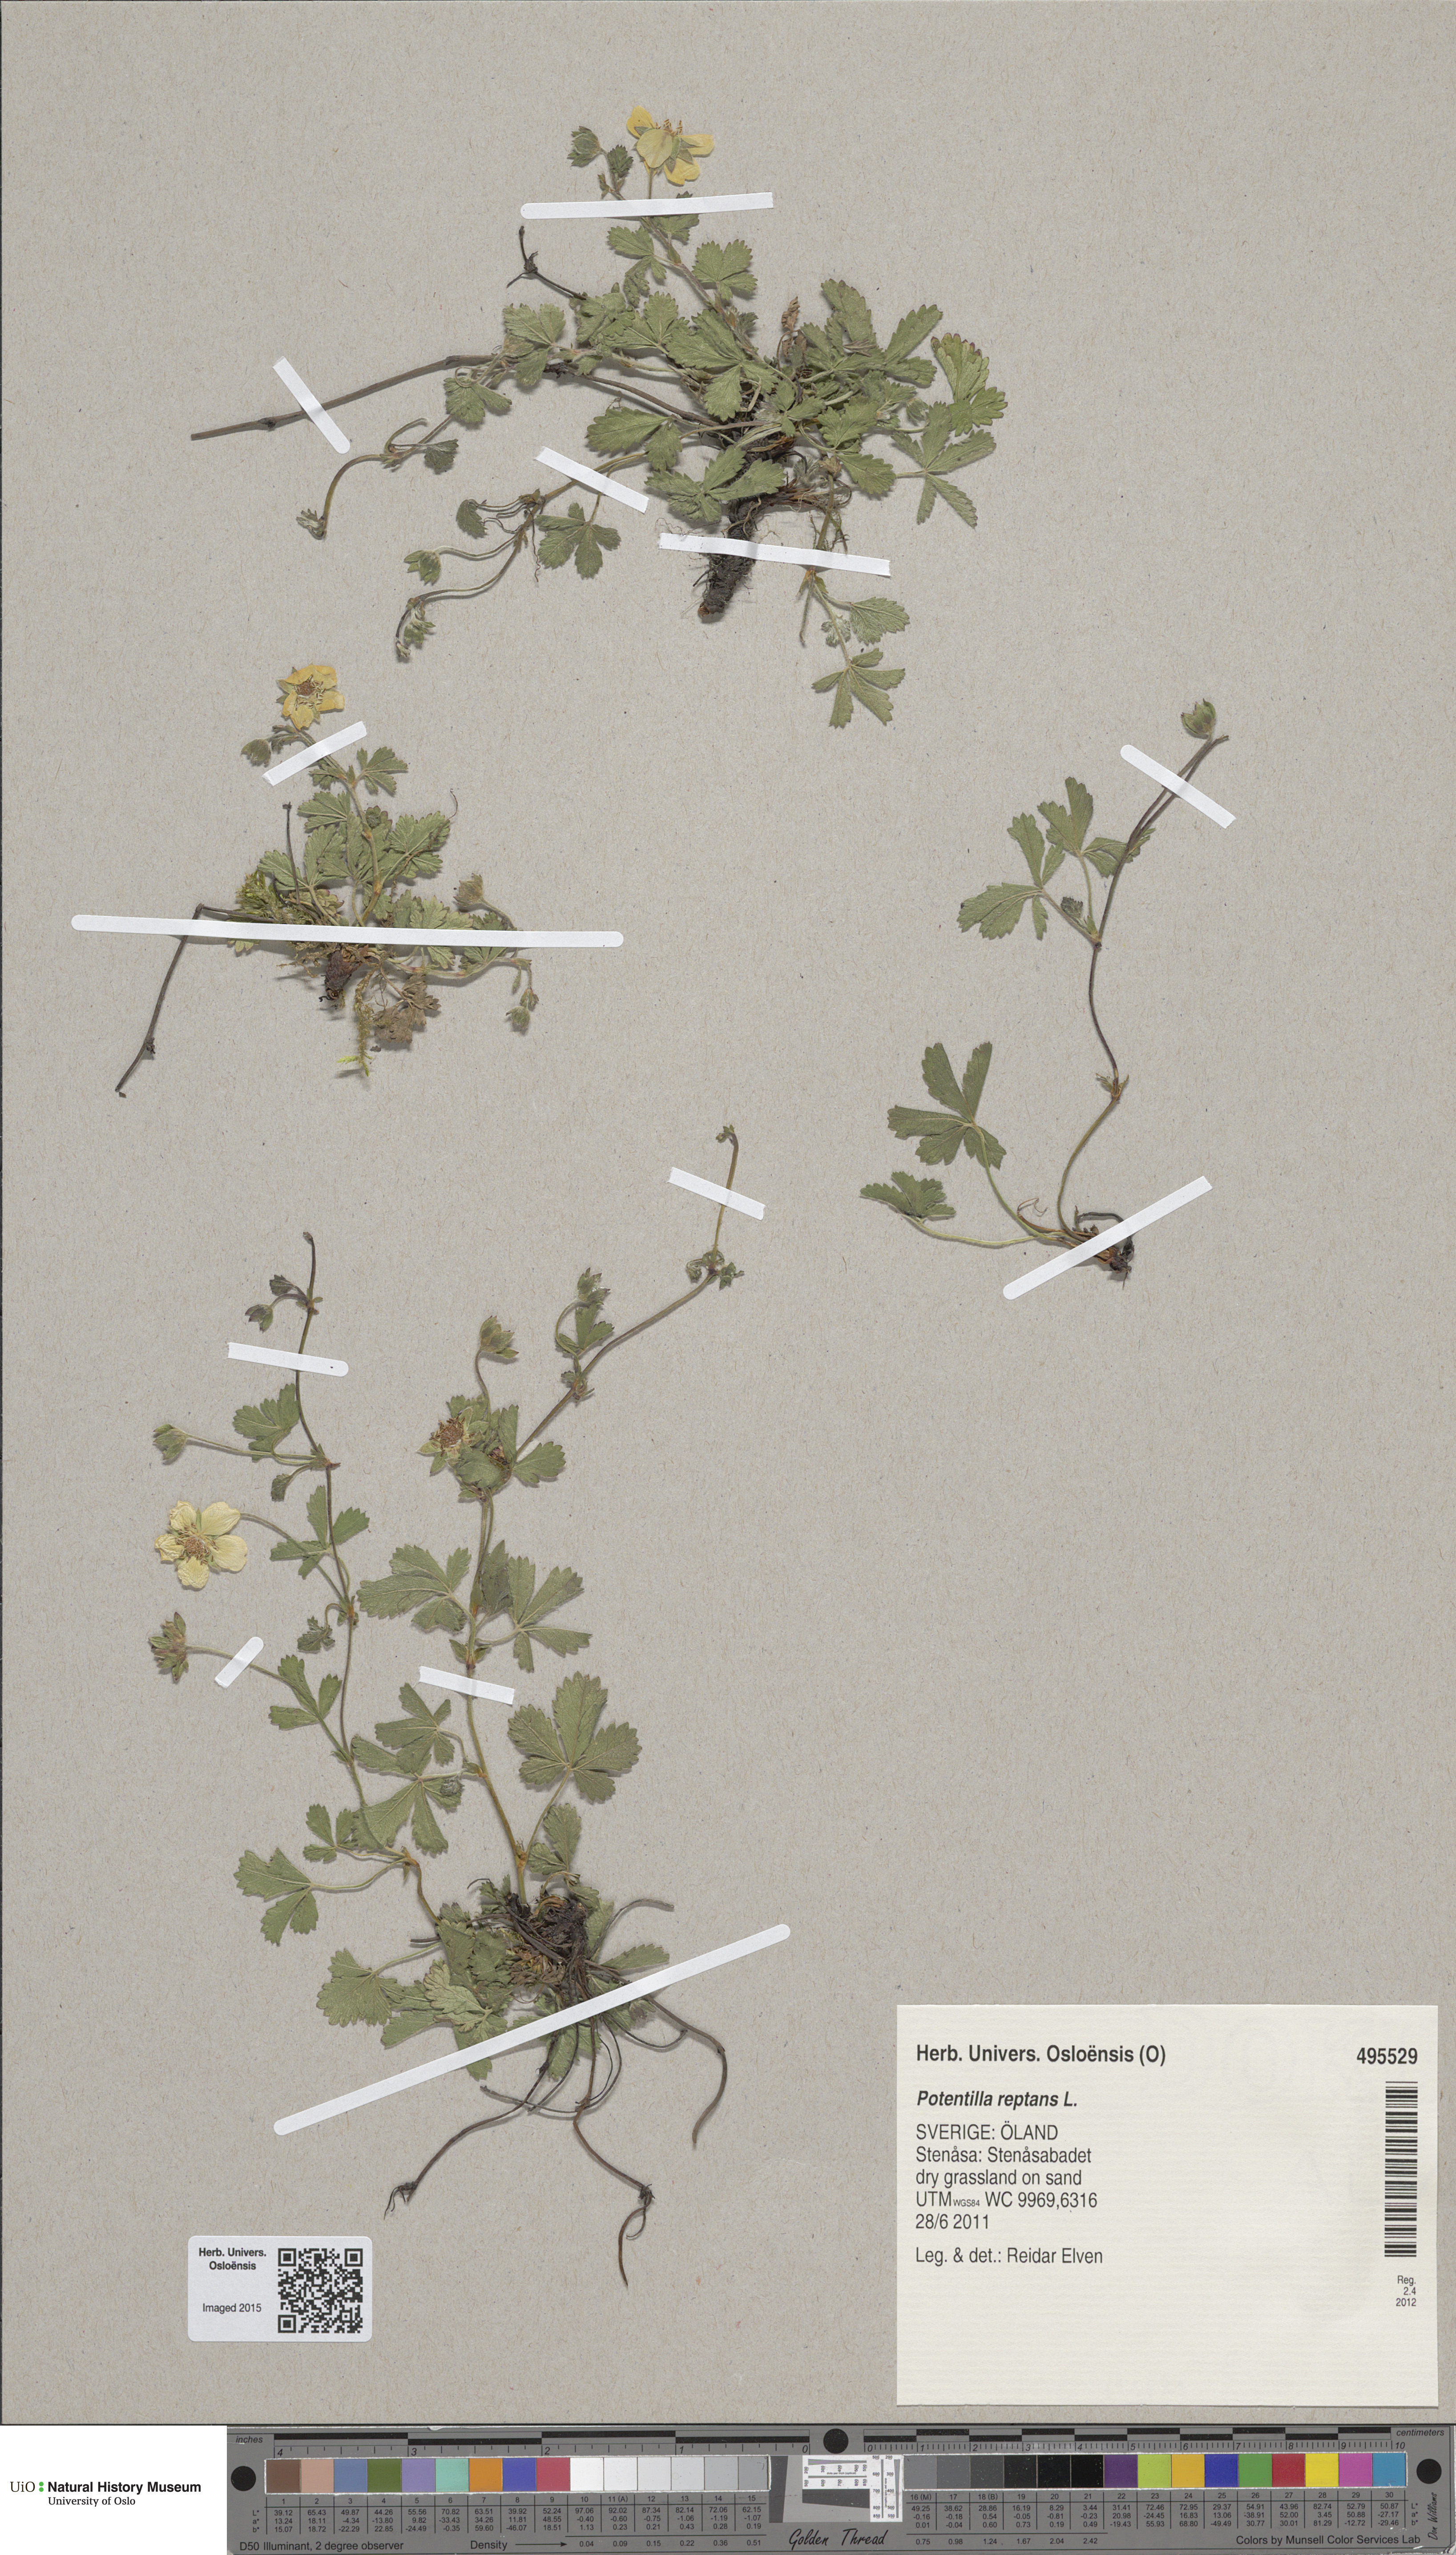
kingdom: Plantae
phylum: Tracheophyta
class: Magnoliopsida
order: Rosales
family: Rosaceae
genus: Potentilla
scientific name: Potentilla reptans
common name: Creeping cinquefoil
